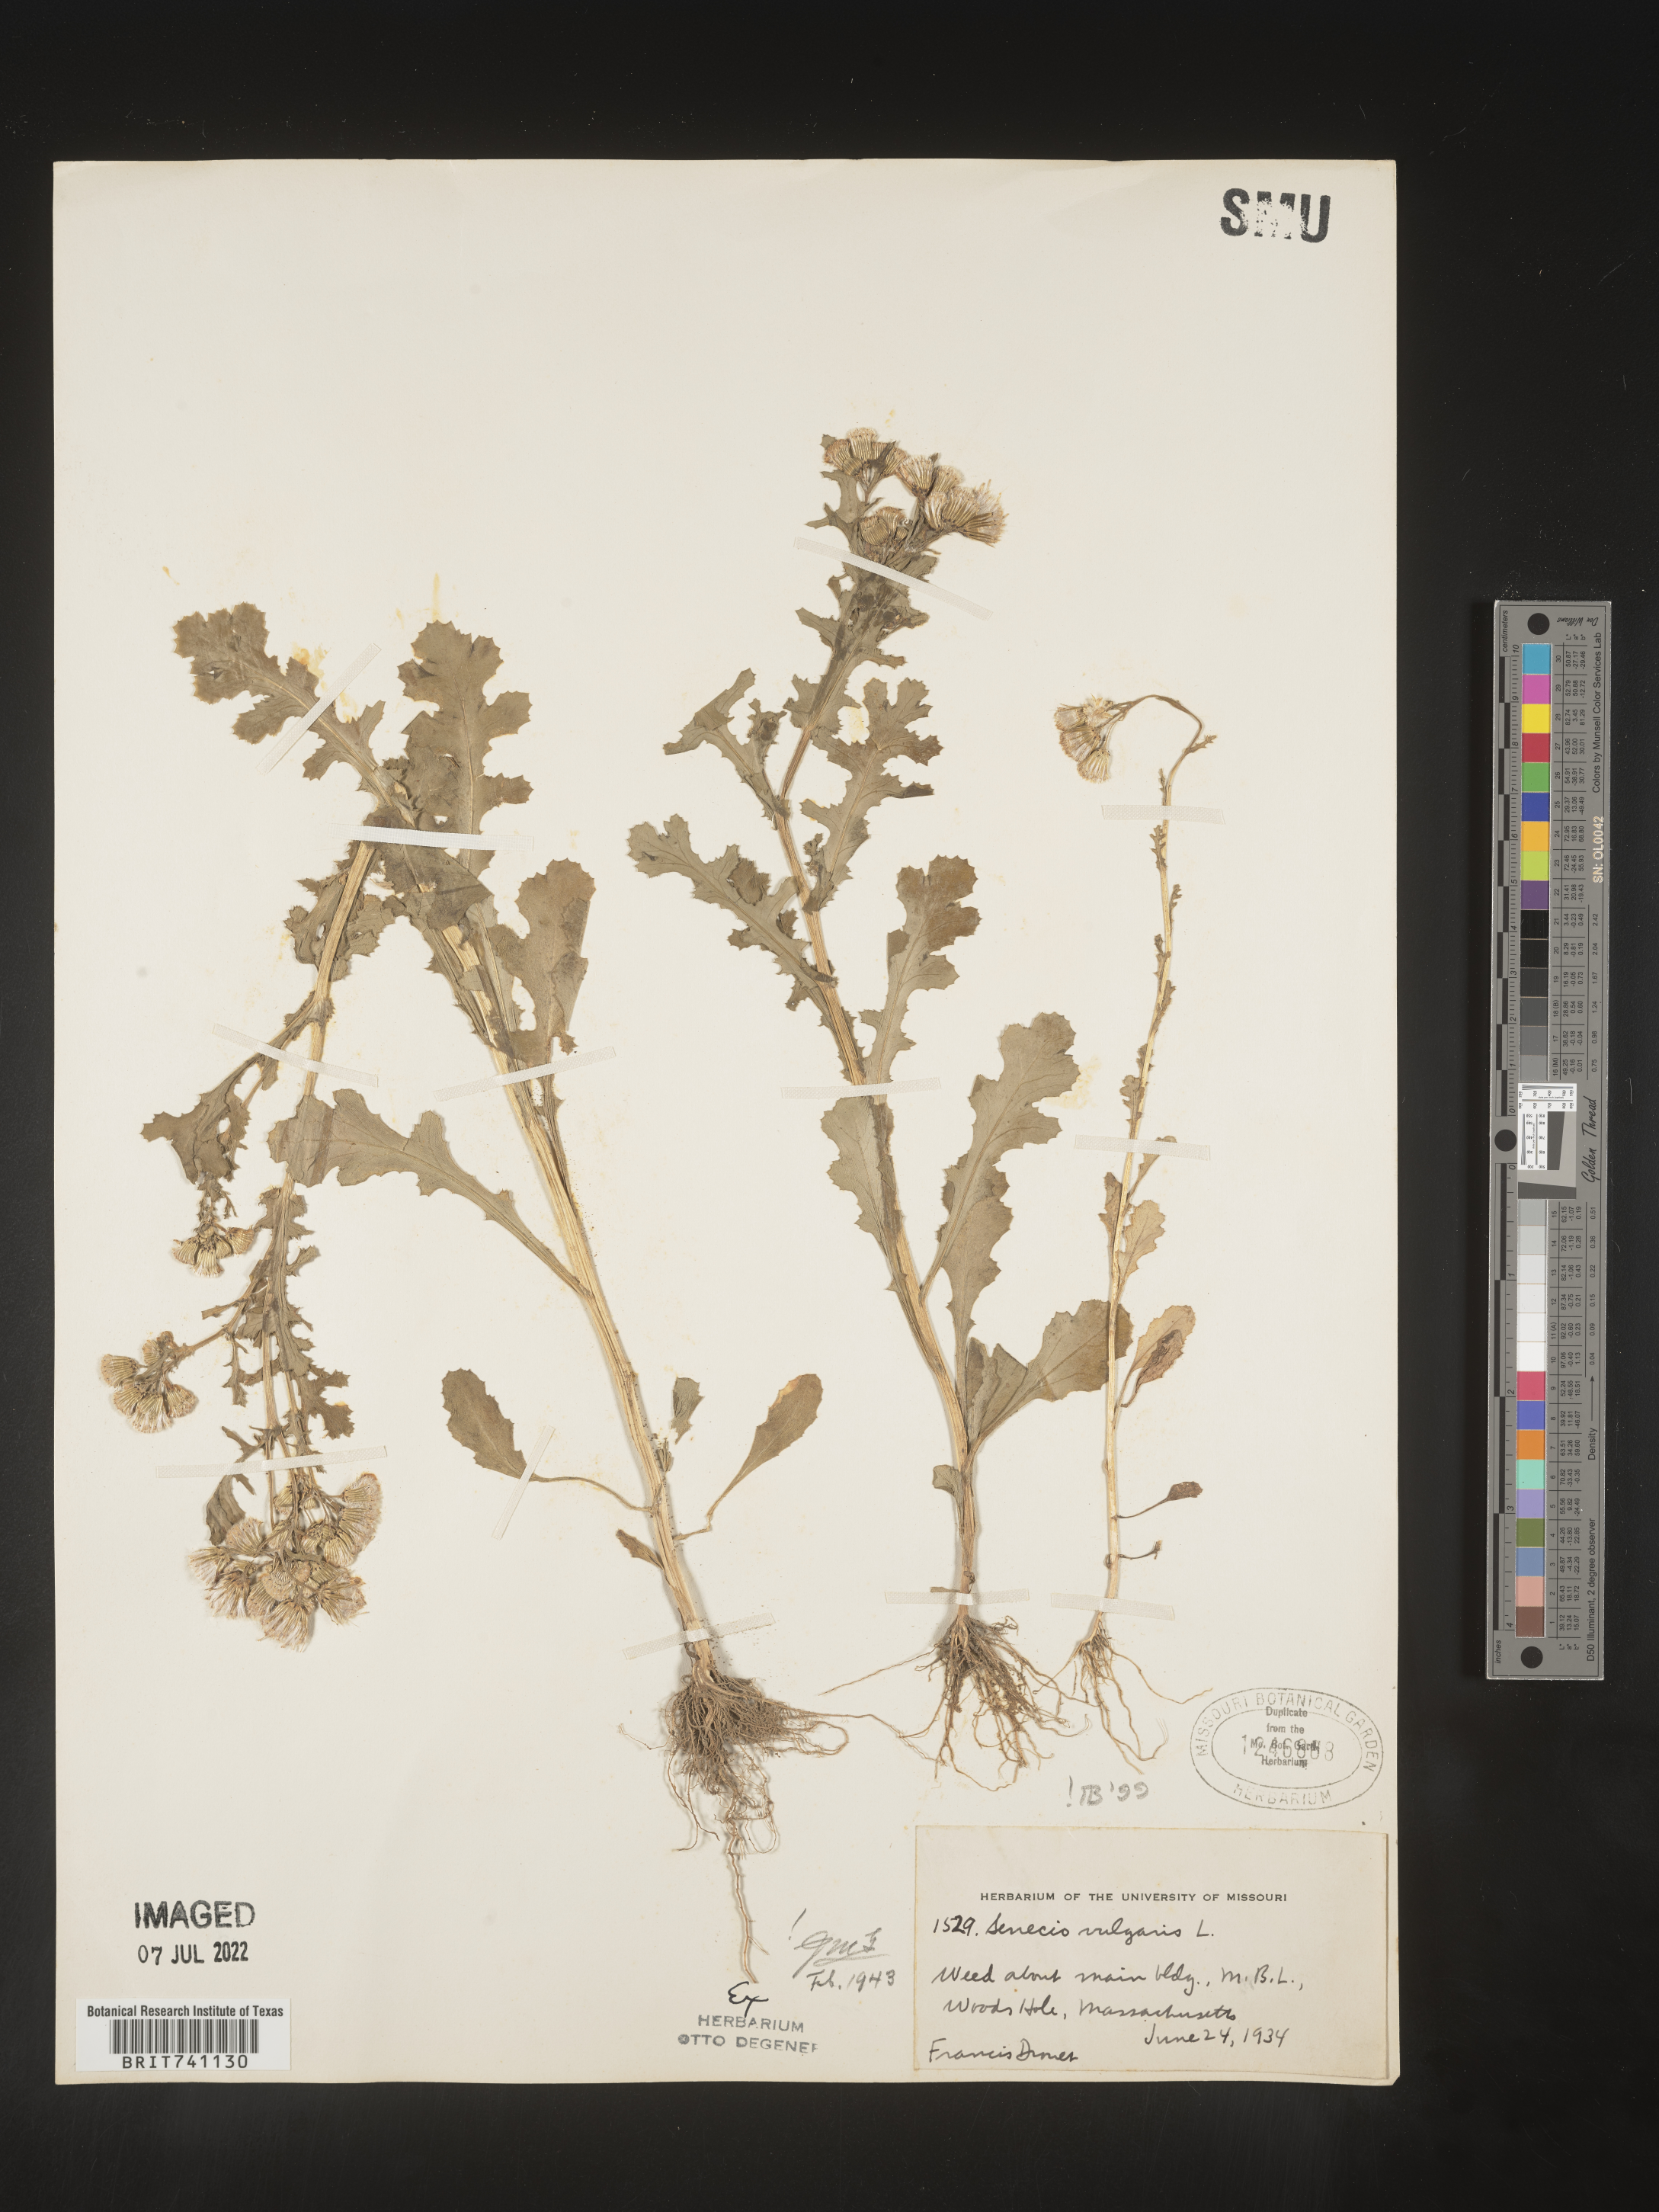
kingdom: Plantae
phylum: Tracheophyta
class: Magnoliopsida
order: Asterales
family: Asteraceae
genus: Senecio
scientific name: Senecio vulgaris
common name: Old-man-in-the-spring
